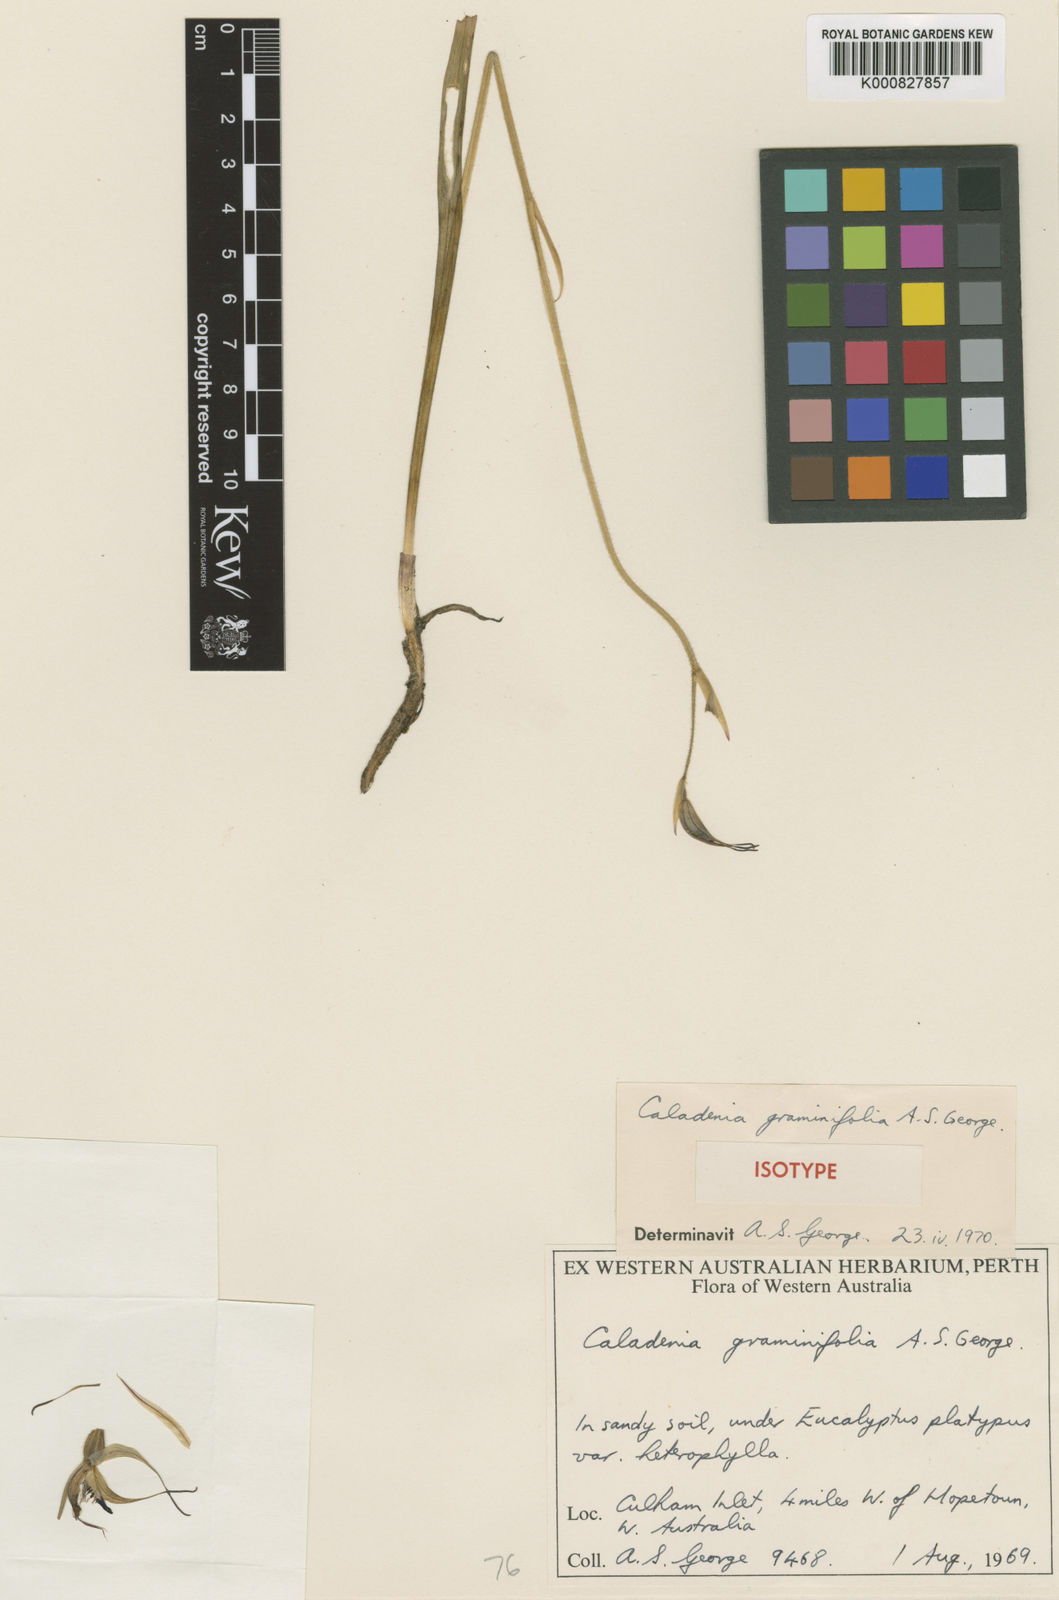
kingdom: Plantae
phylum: Tracheophyta
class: Liliopsida
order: Asparagales
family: Orchidaceae
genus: Caladenia
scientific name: Caladenia falcata
